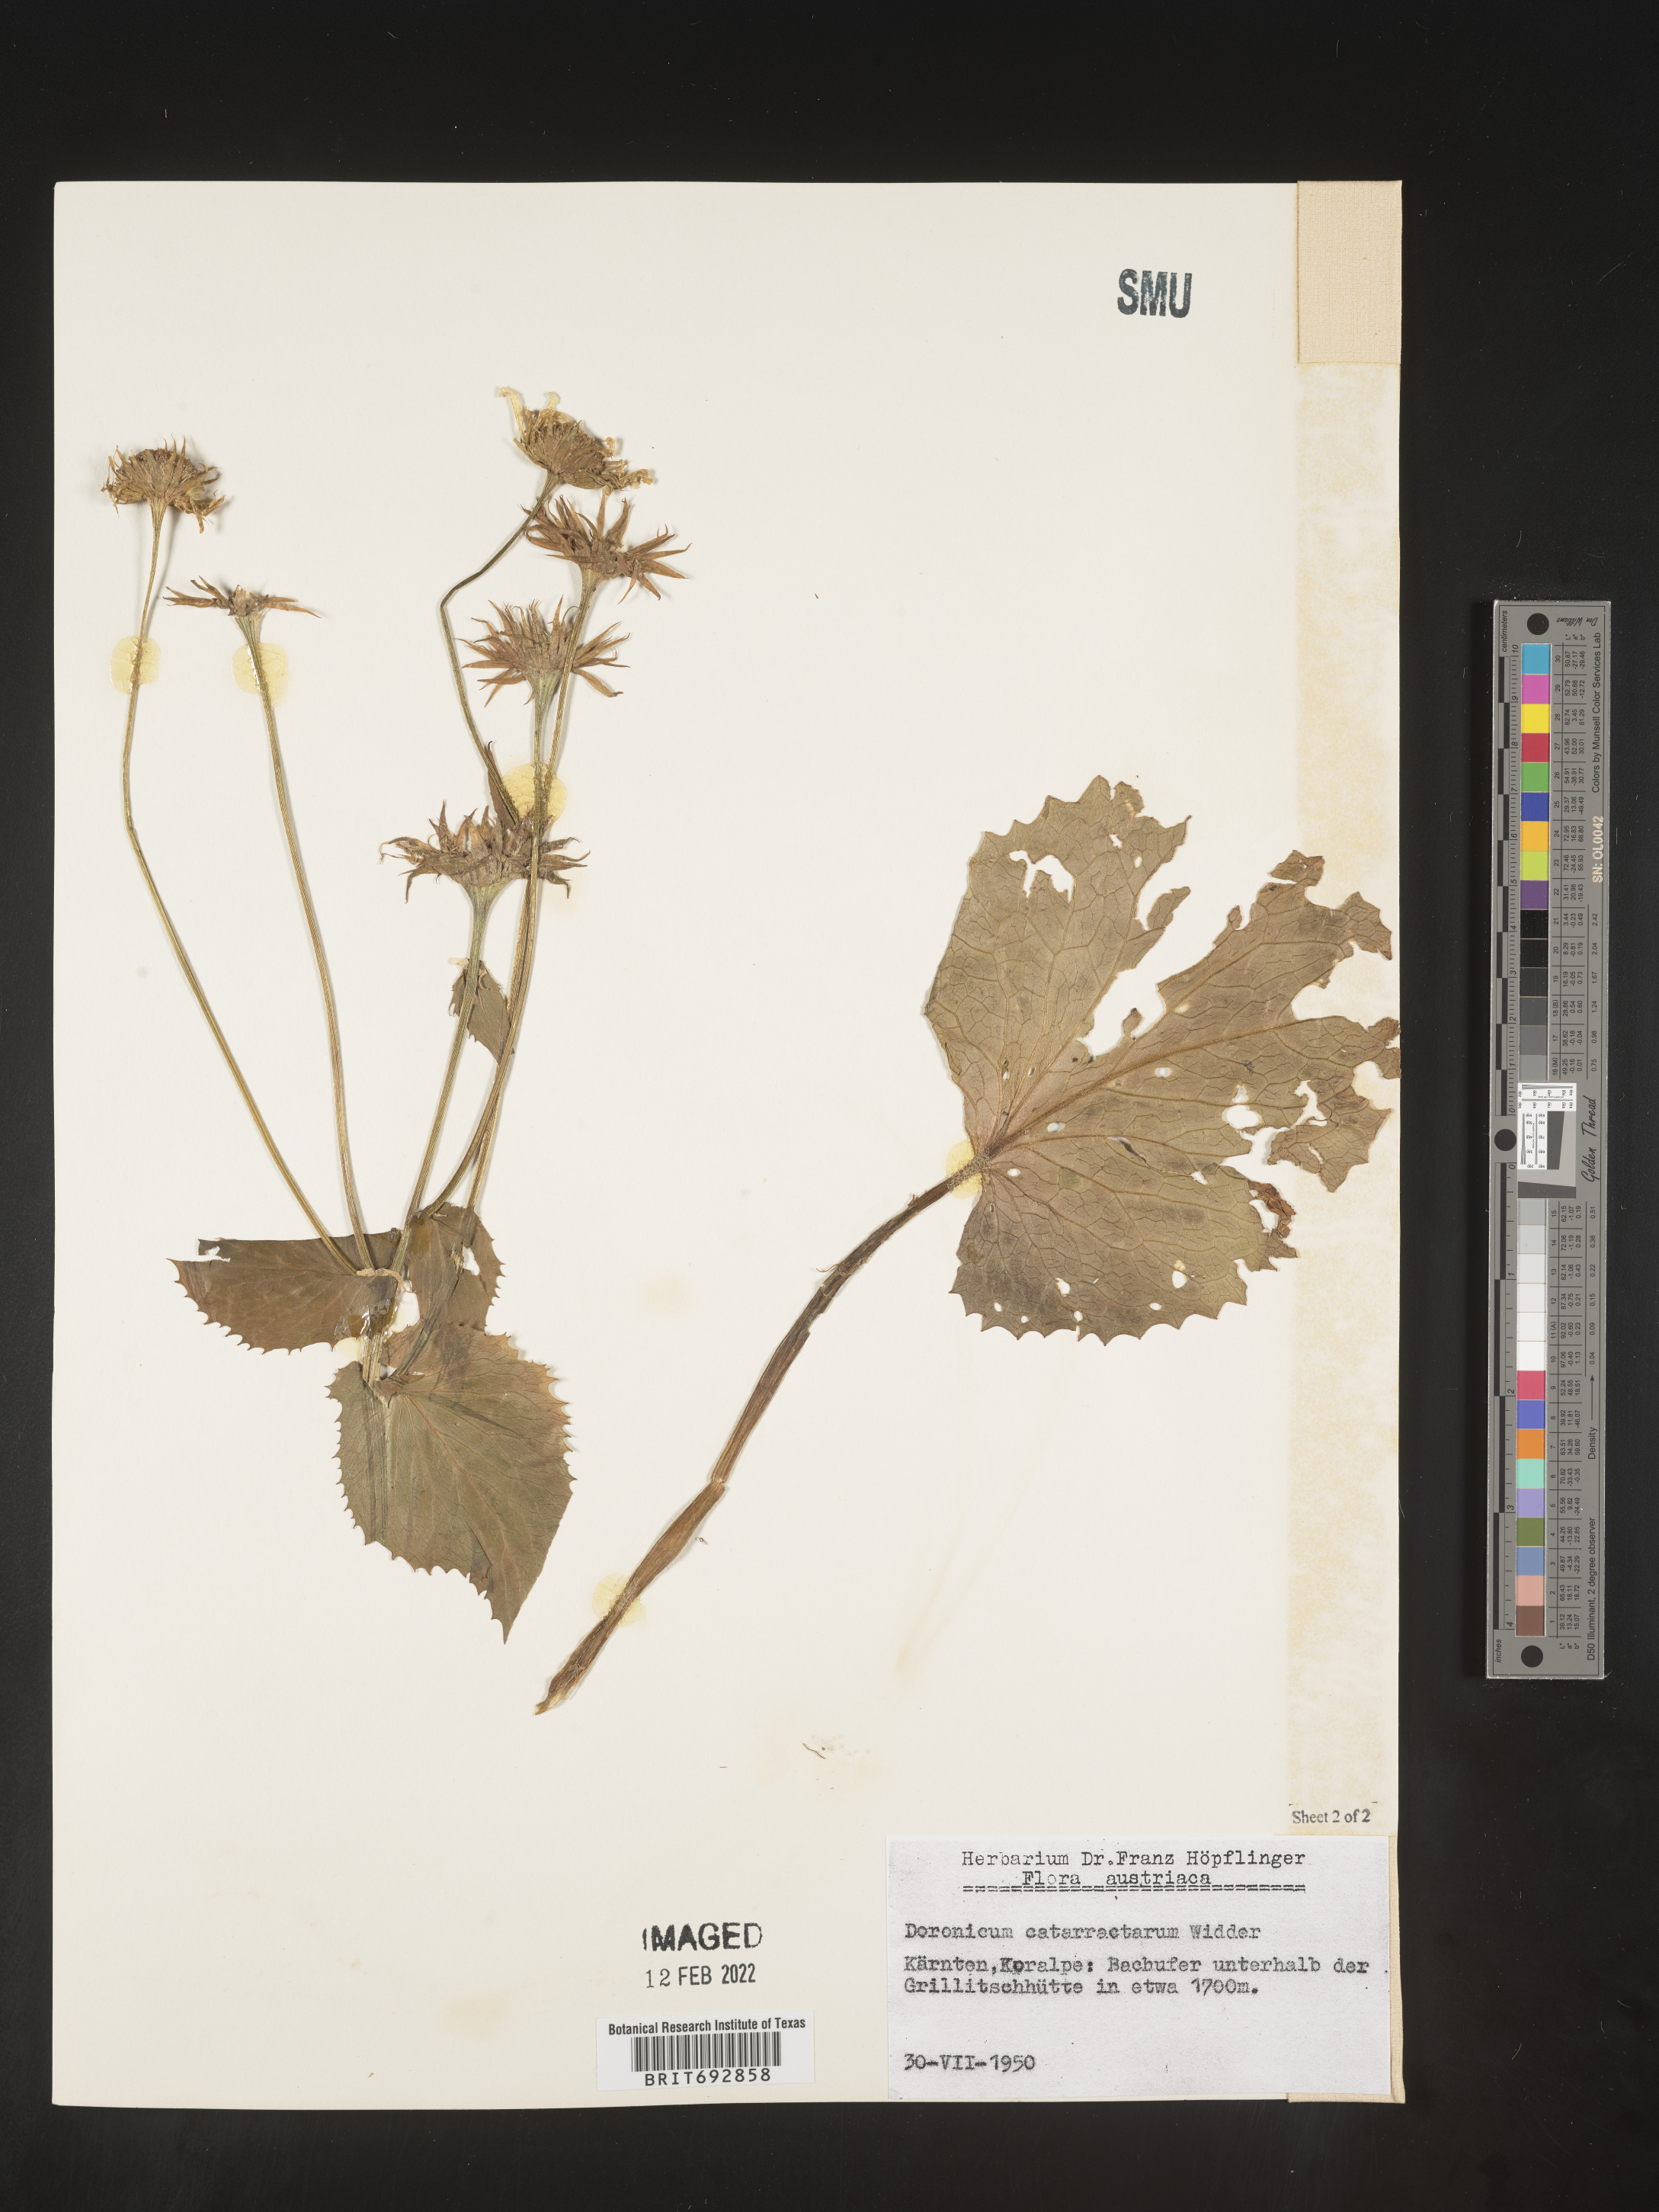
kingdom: Plantae
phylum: Tracheophyta
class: Magnoliopsida
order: Asterales
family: Asteraceae
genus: Doronicum
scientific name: Doronicum
